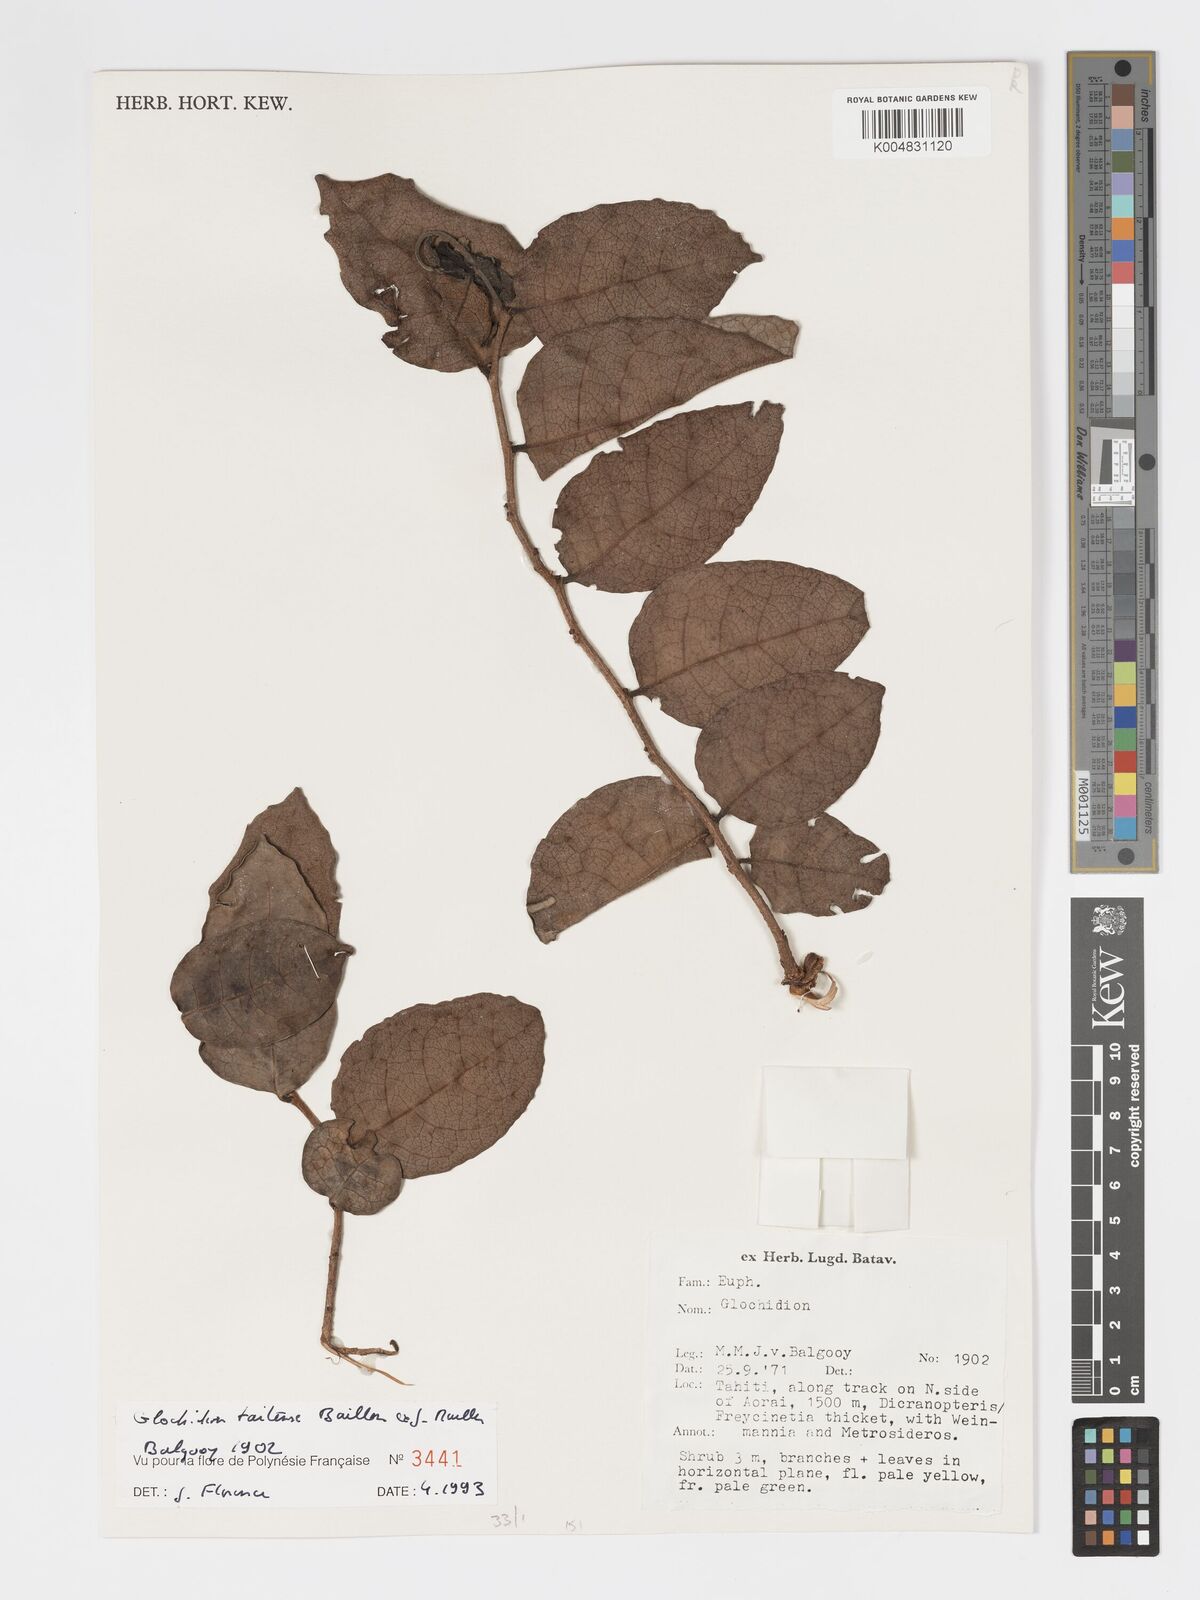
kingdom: Plantae
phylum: Tracheophyta
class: Magnoliopsida
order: Malpighiales
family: Phyllanthaceae
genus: Glochidion
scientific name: Glochidion taitense
